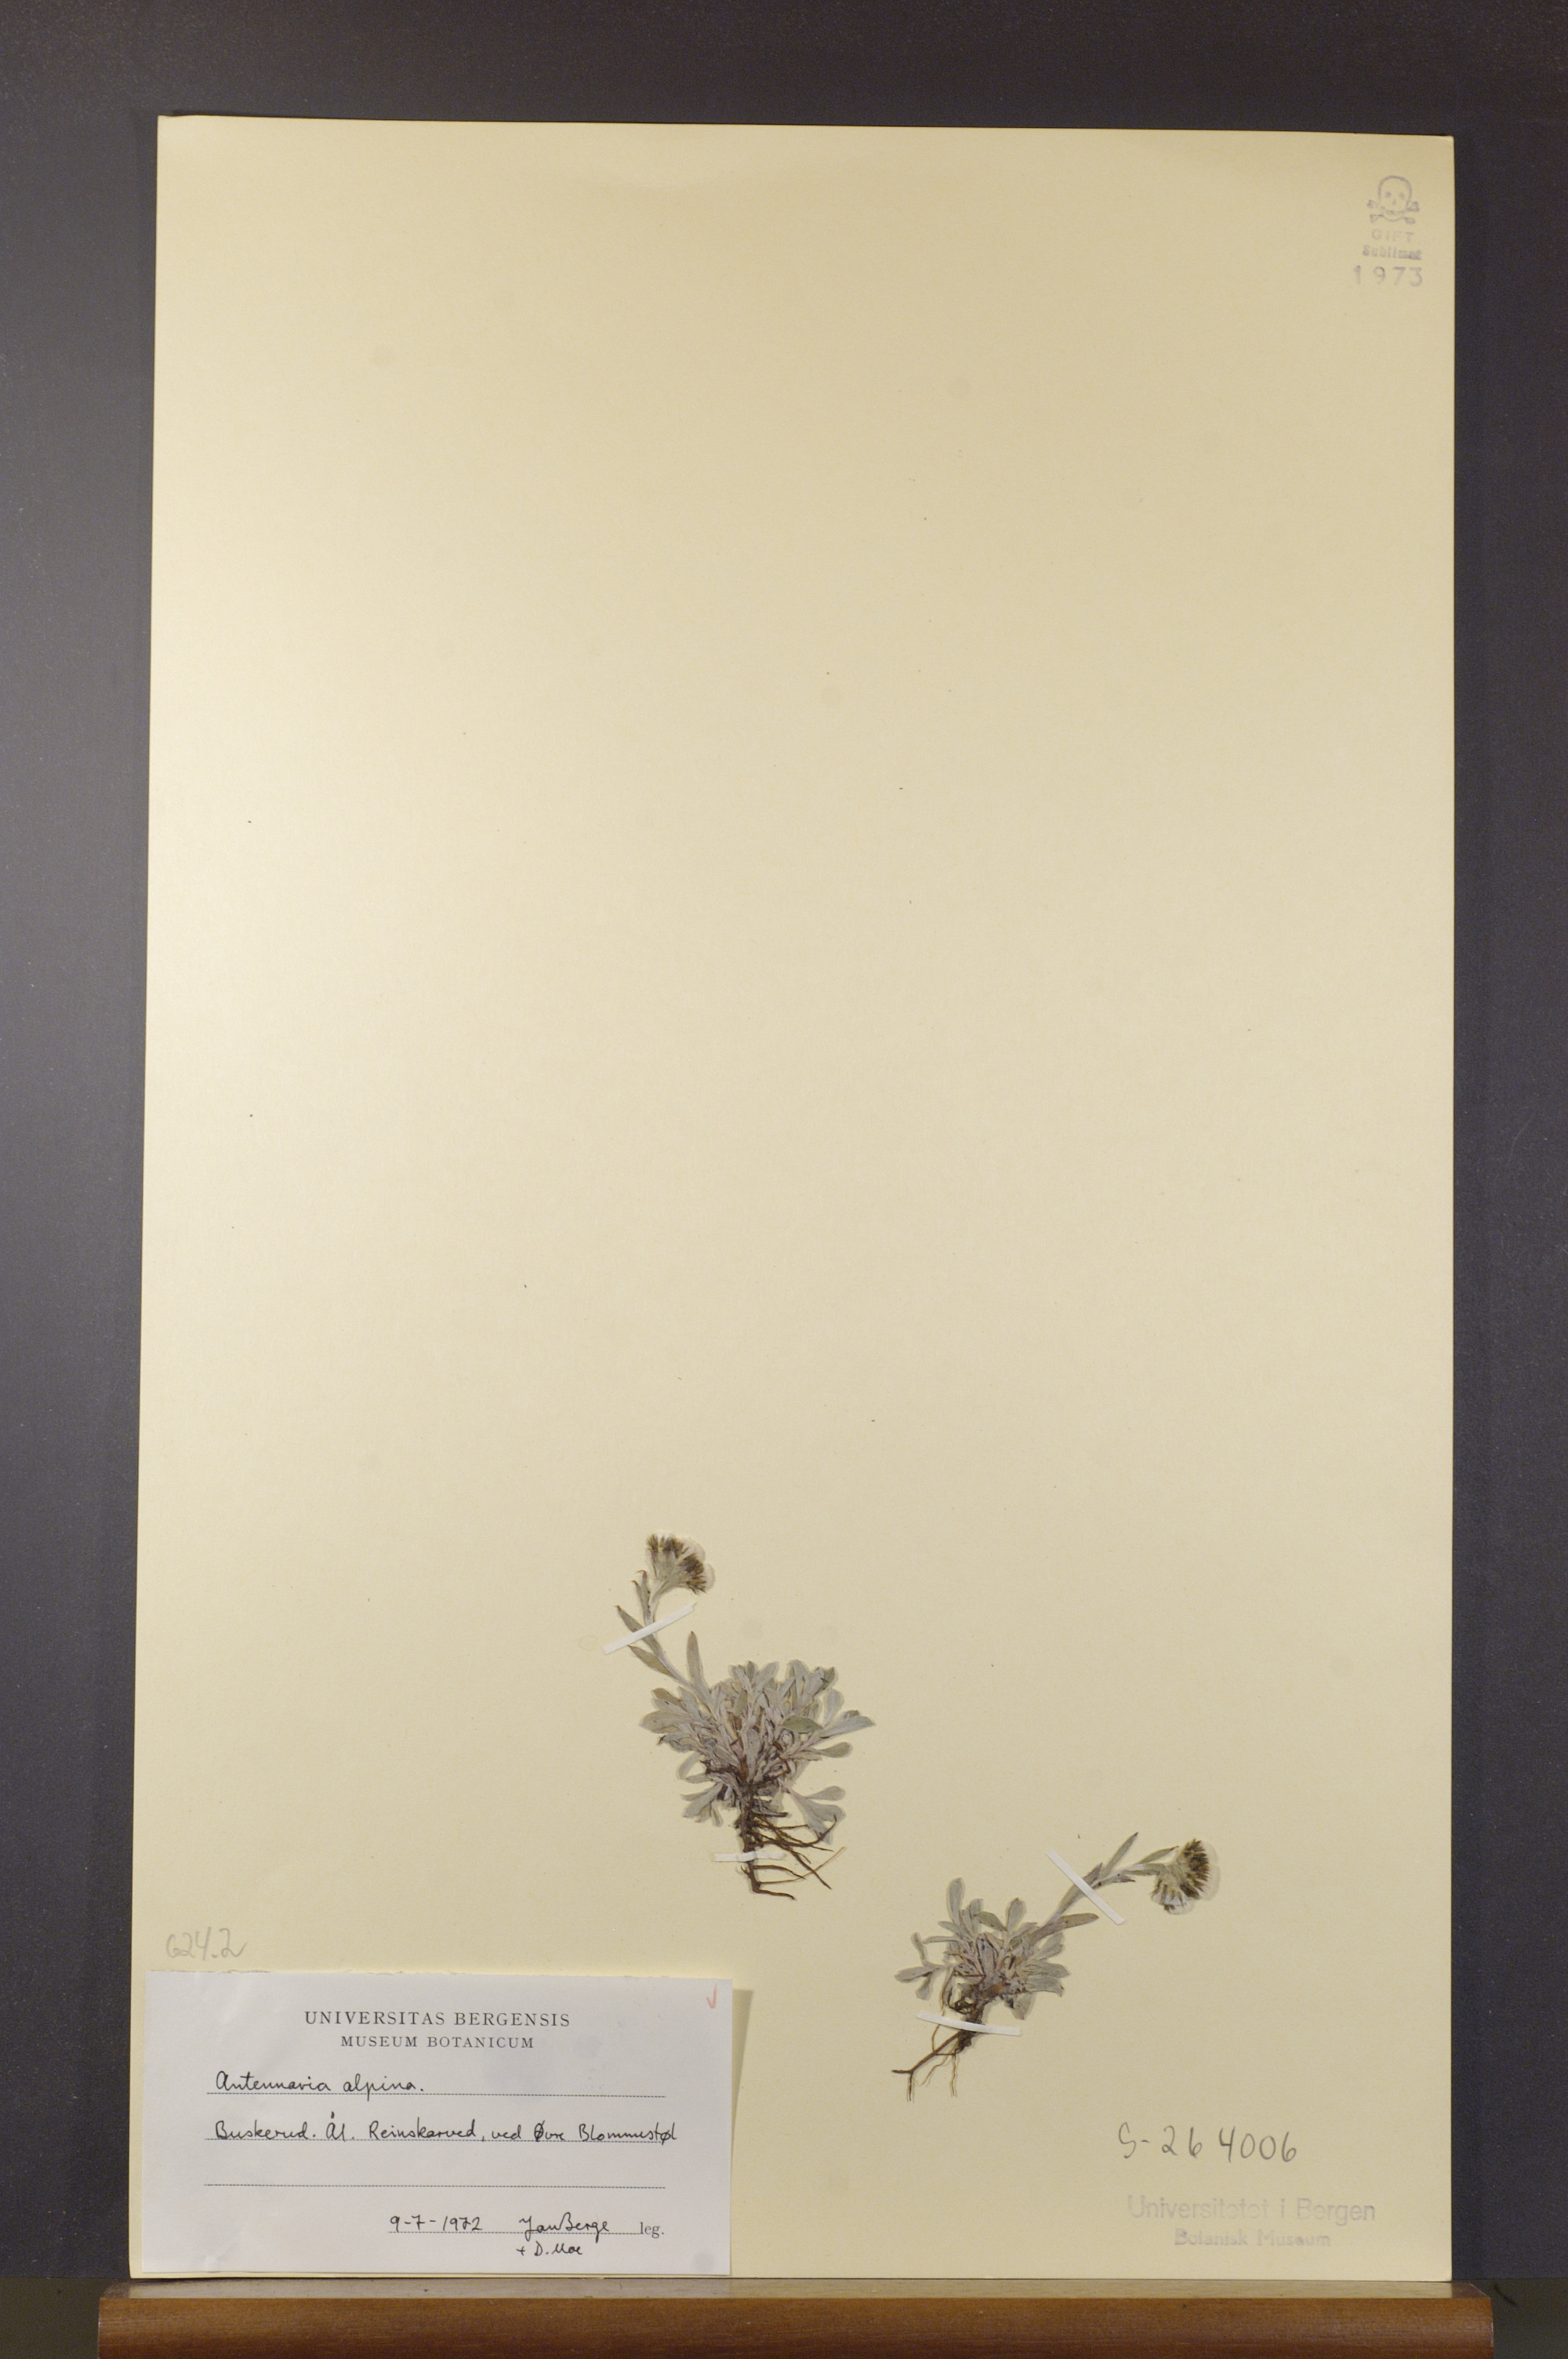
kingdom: Plantae
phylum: Tracheophyta
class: Magnoliopsida
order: Asterales
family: Asteraceae
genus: Antennaria
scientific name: Antennaria alpina
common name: Alpine pussytoes
